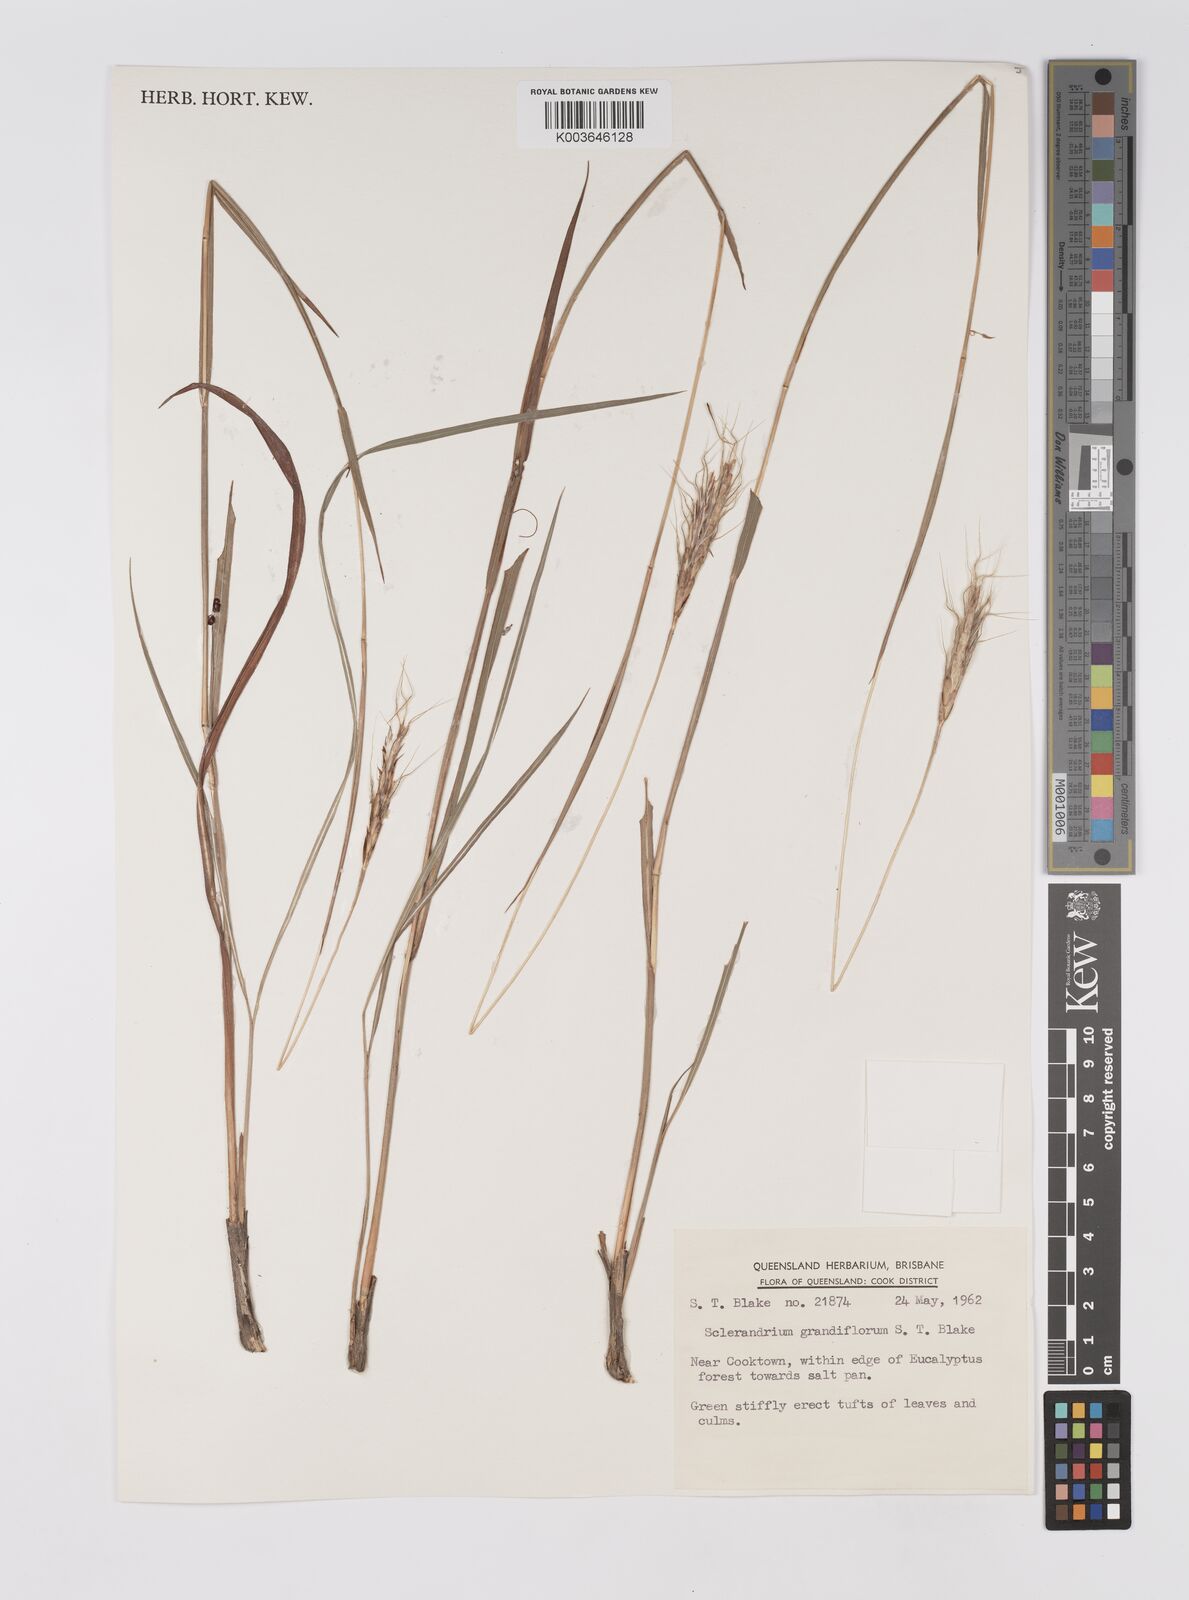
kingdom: Plantae
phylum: Tracheophyta
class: Liliopsida
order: Poales
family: Poaceae
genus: Germainia
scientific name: Germainia grandiflora
